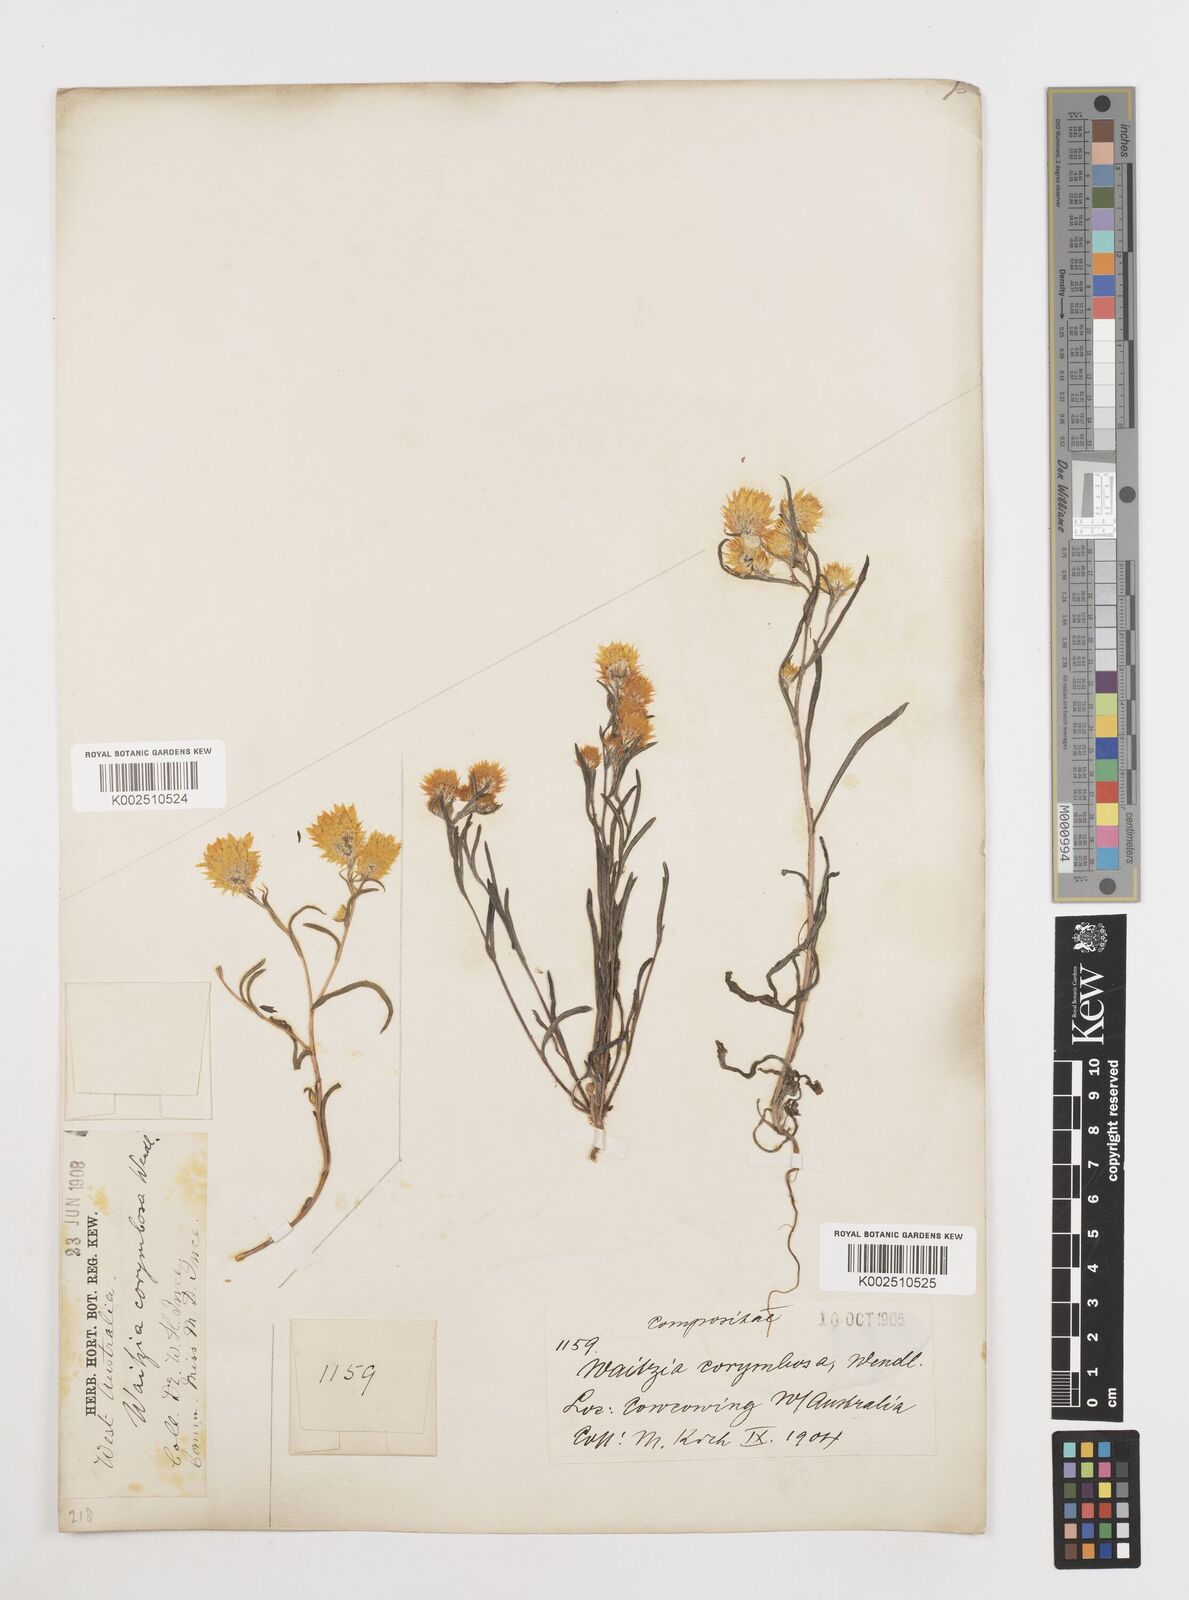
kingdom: Plantae
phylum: Tracheophyta
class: Magnoliopsida
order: Asterales
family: Asteraceae
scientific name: Asteraceae
